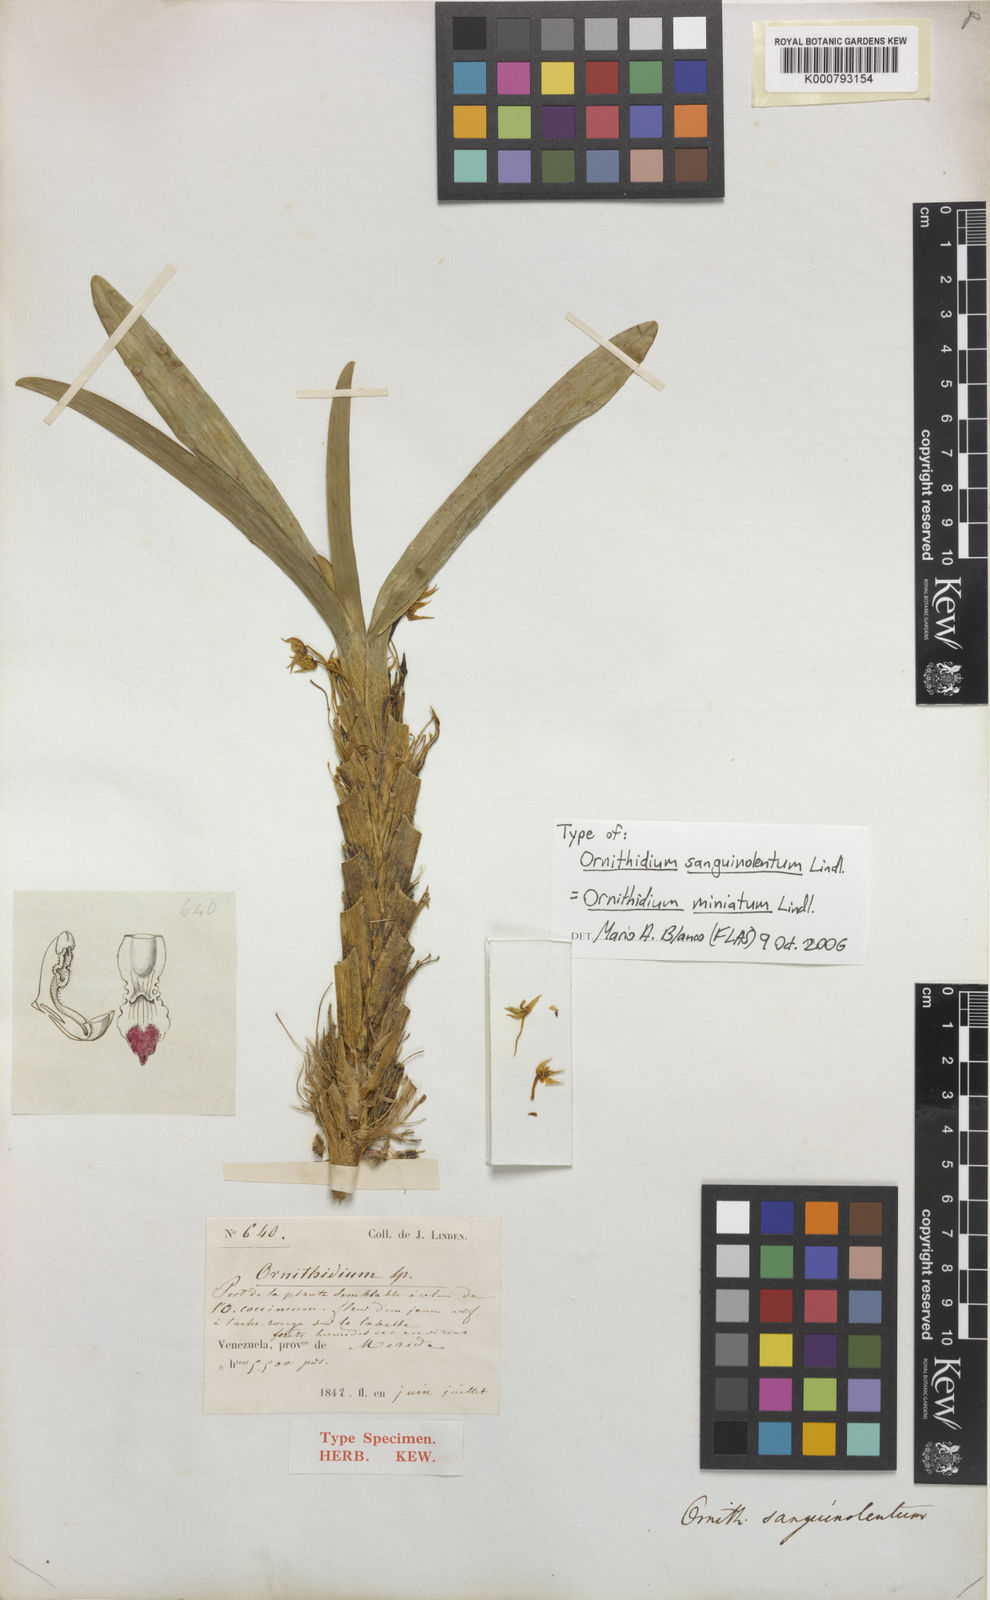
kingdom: Plantae
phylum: Tracheophyta
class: Liliopsida
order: Asparagales
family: Orchidaceae
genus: Maxillaria
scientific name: Maxillaria sanguinolenta
